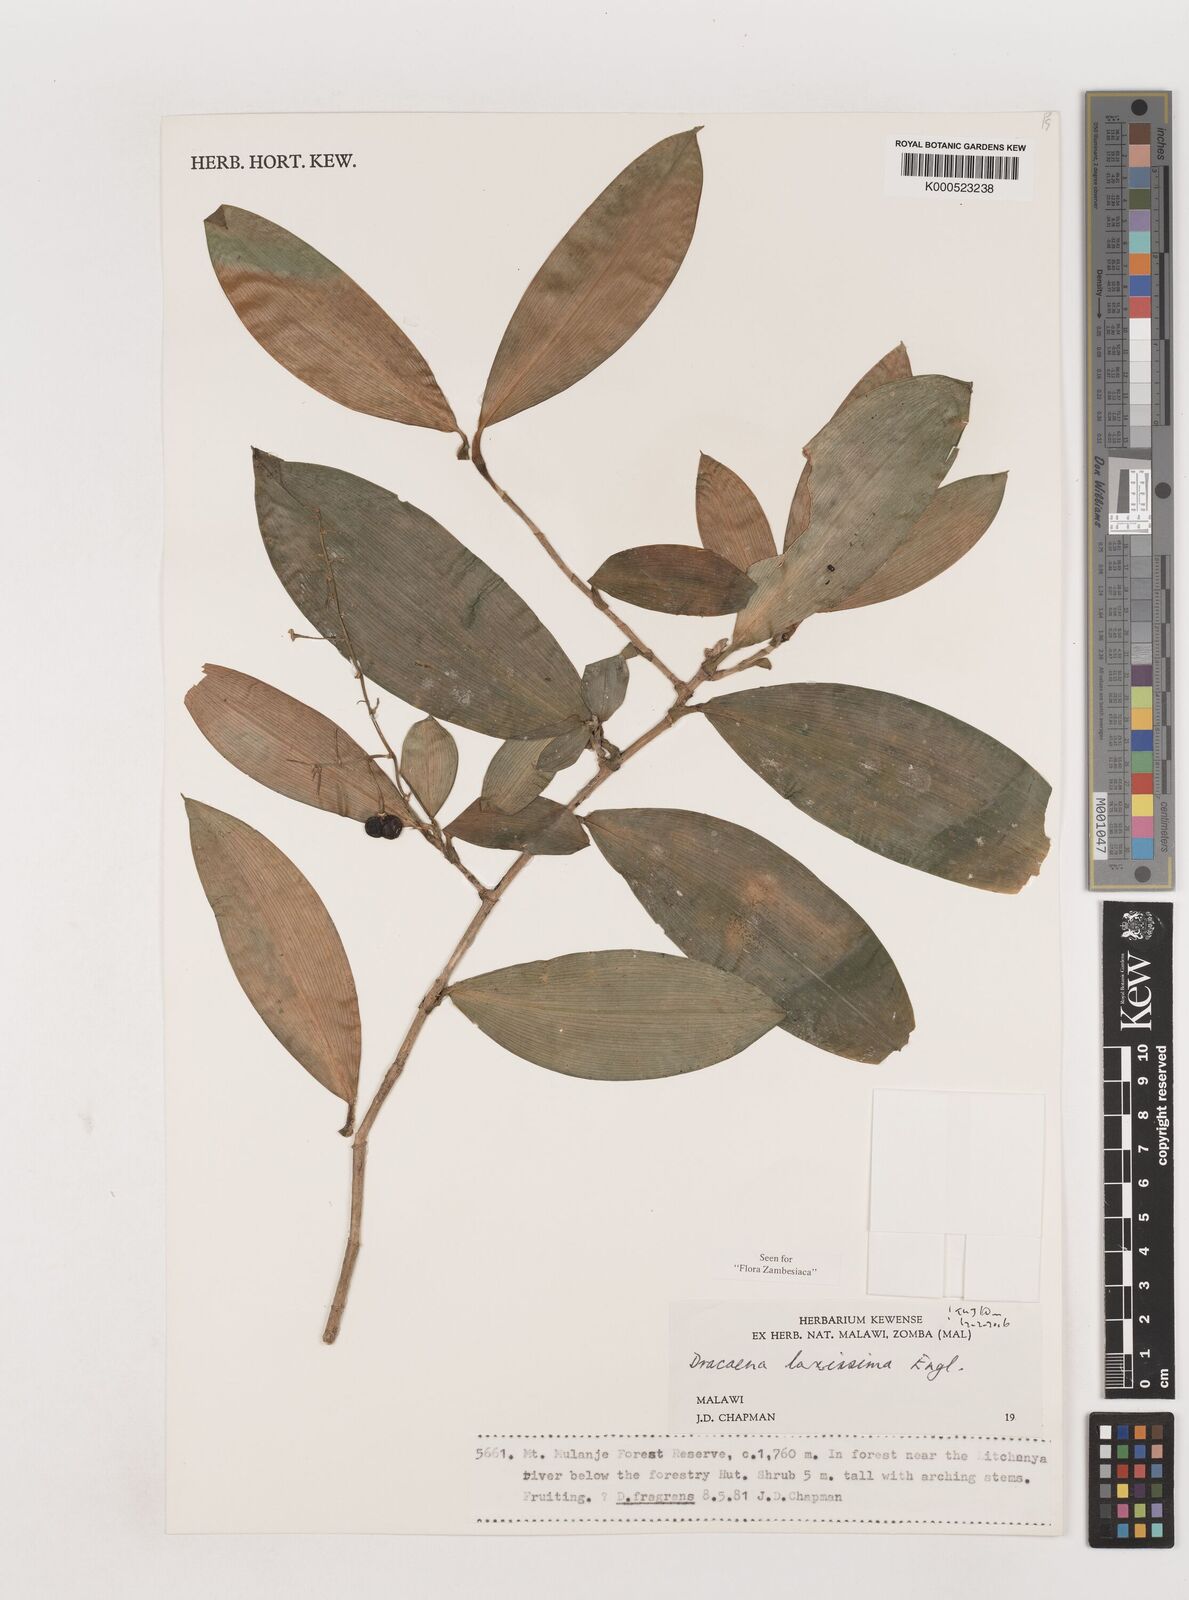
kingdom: Plantae
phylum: Tracheophyta
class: Liliopsida
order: Asparagales
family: Asparagaceae
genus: Dracaena
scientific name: Dracaena laxissima
